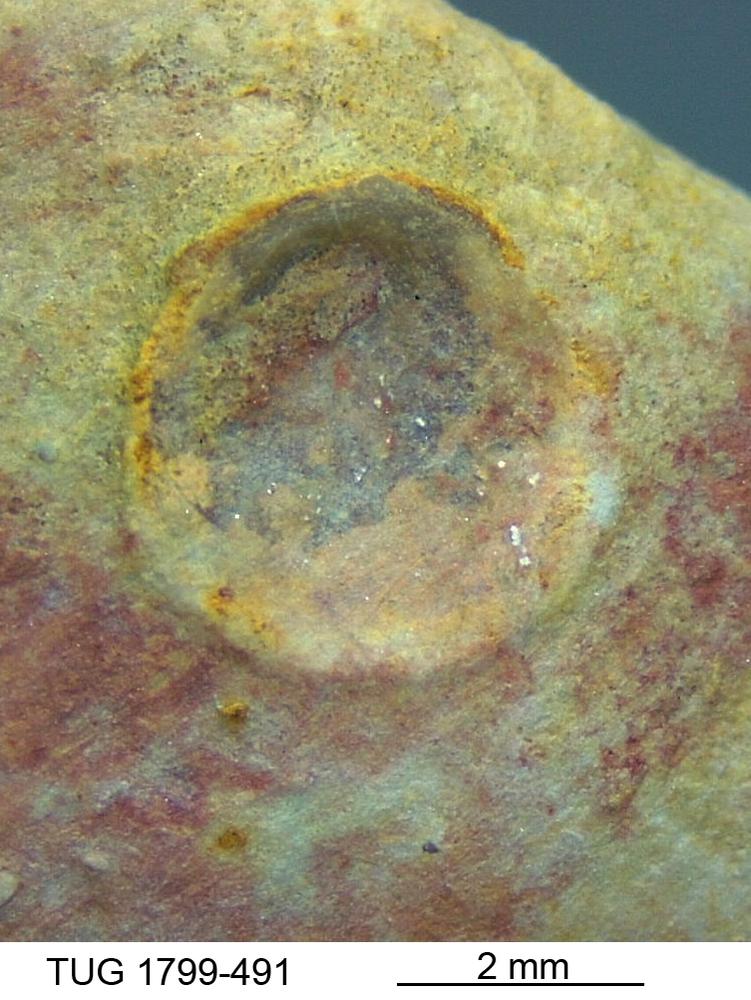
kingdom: Animalia
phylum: Brachiopoda
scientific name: Brachiopoda
